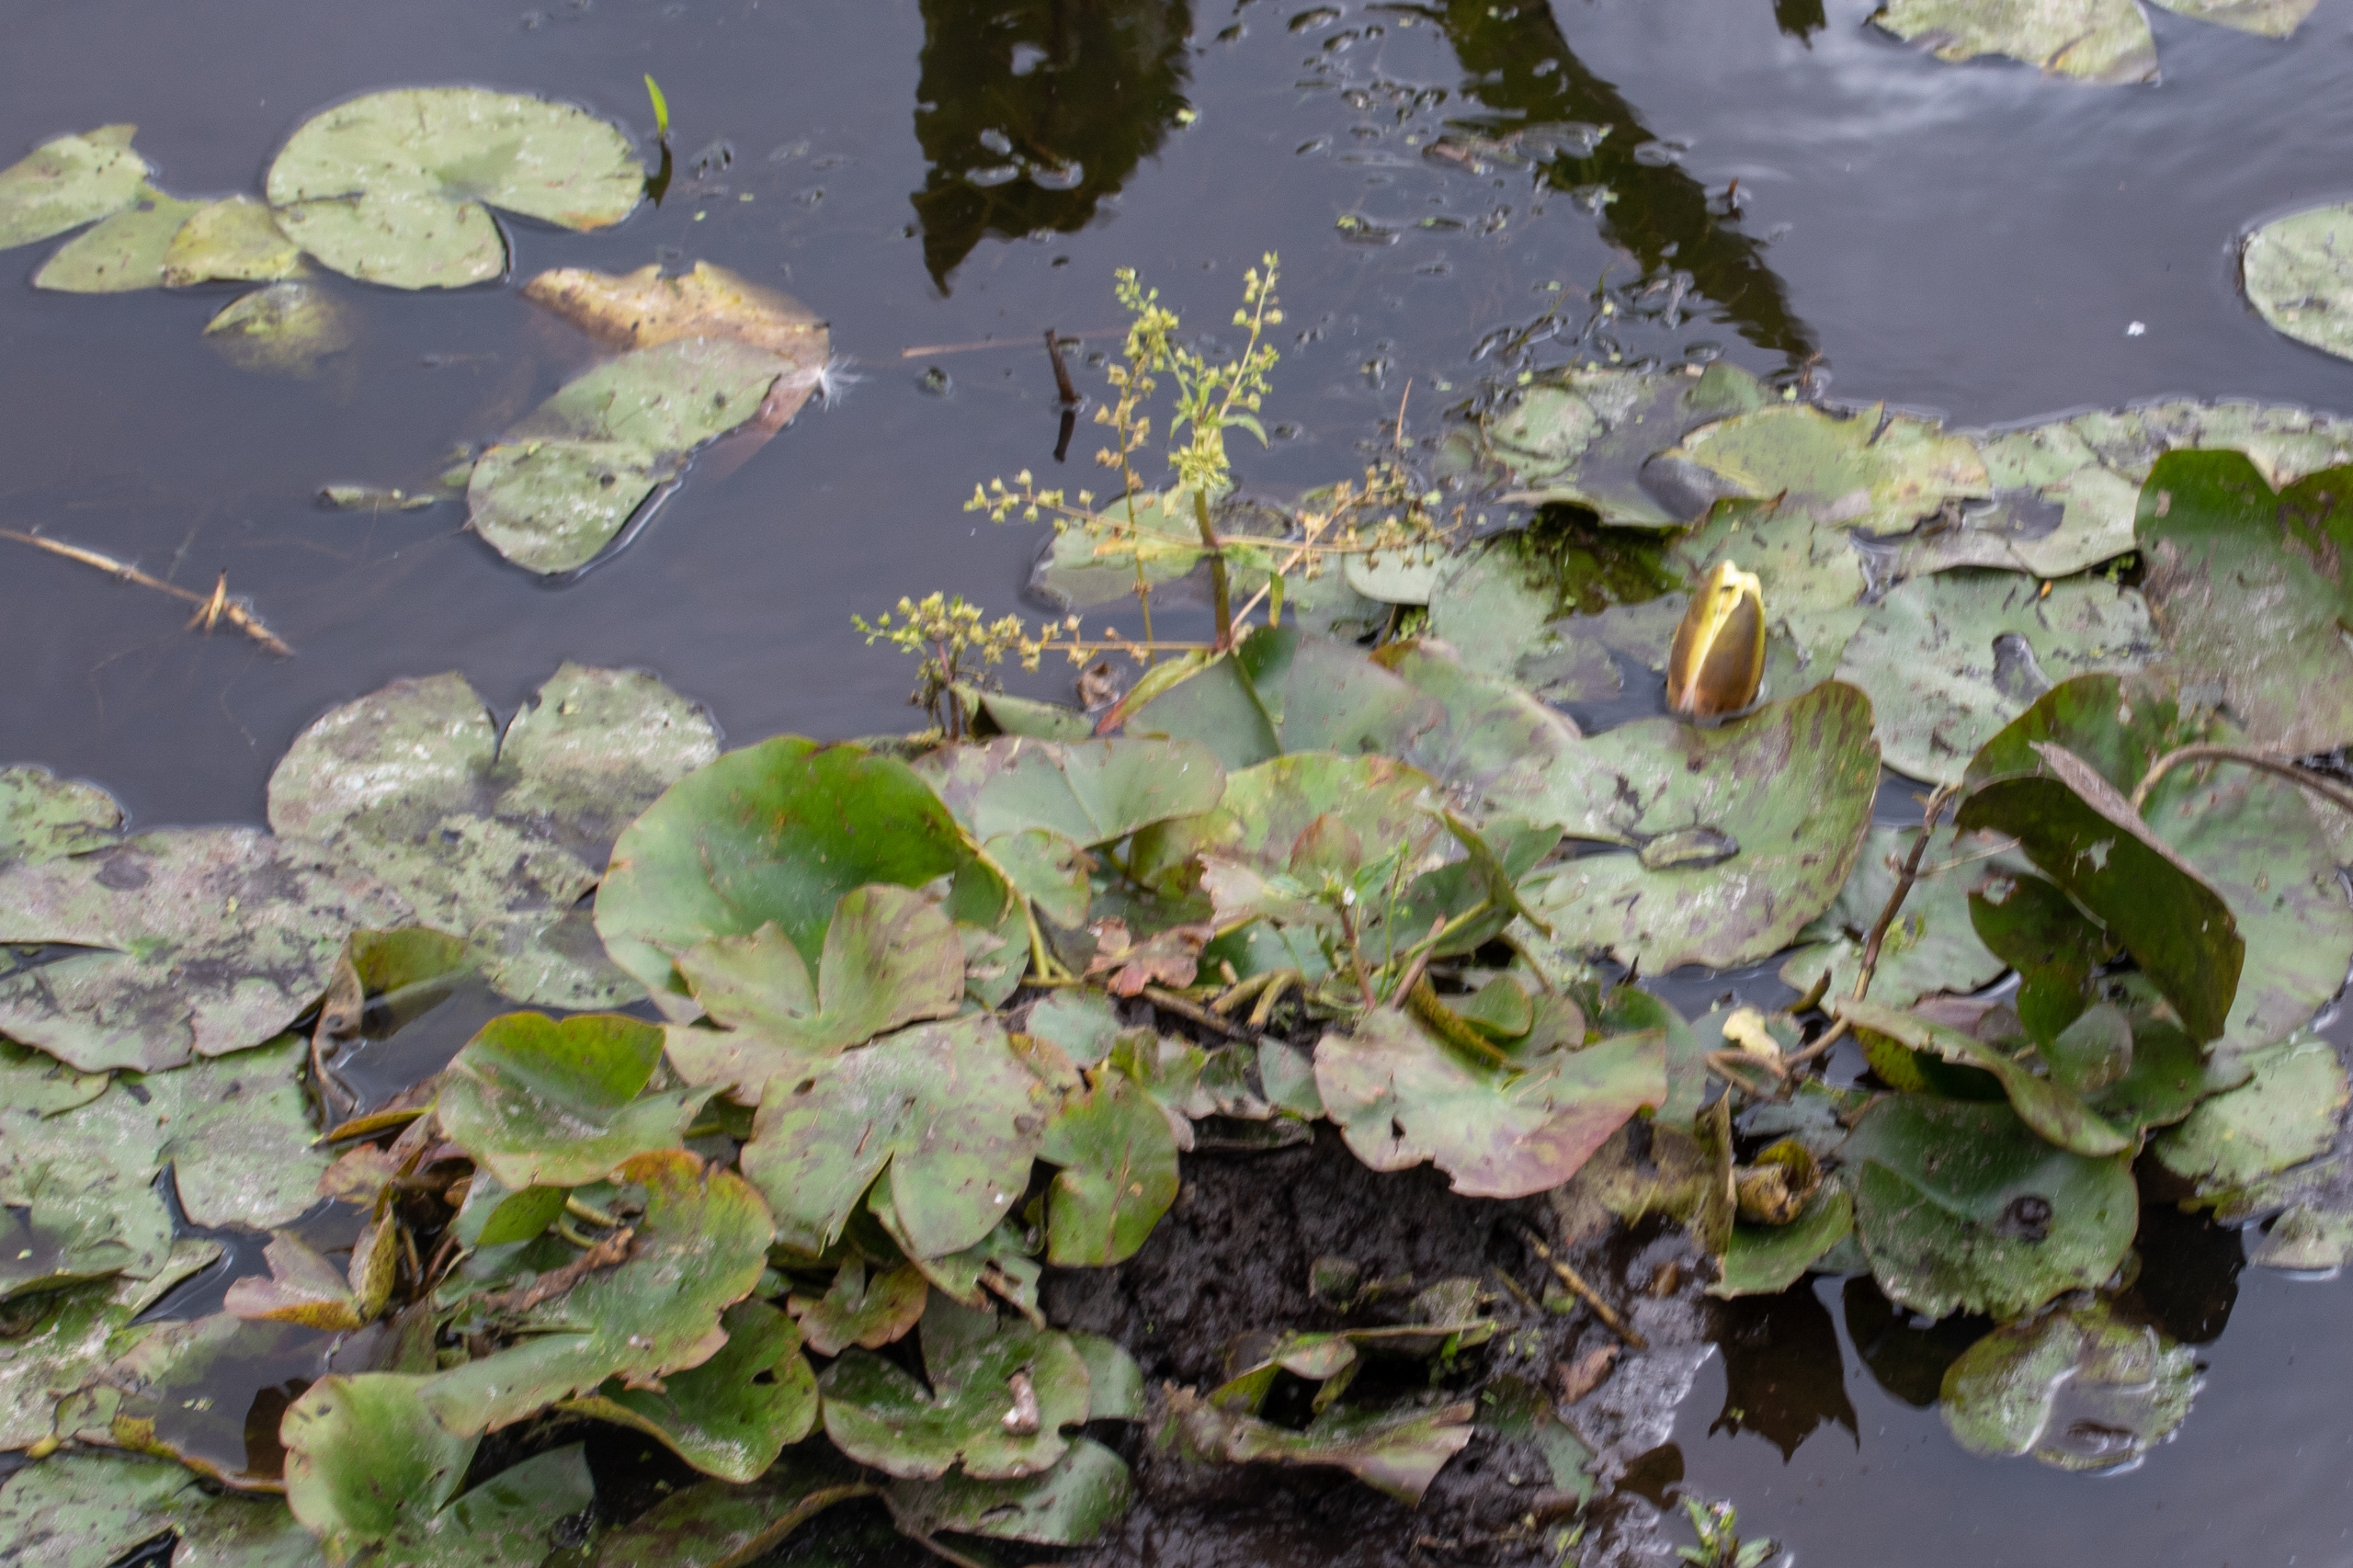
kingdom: Plantae
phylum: Tracheophyta
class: Magnoliopsida
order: Nymphaeales
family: Nymphaeaceae
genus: Nymphaea
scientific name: Nymphaea alba
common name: Hvid åkande
